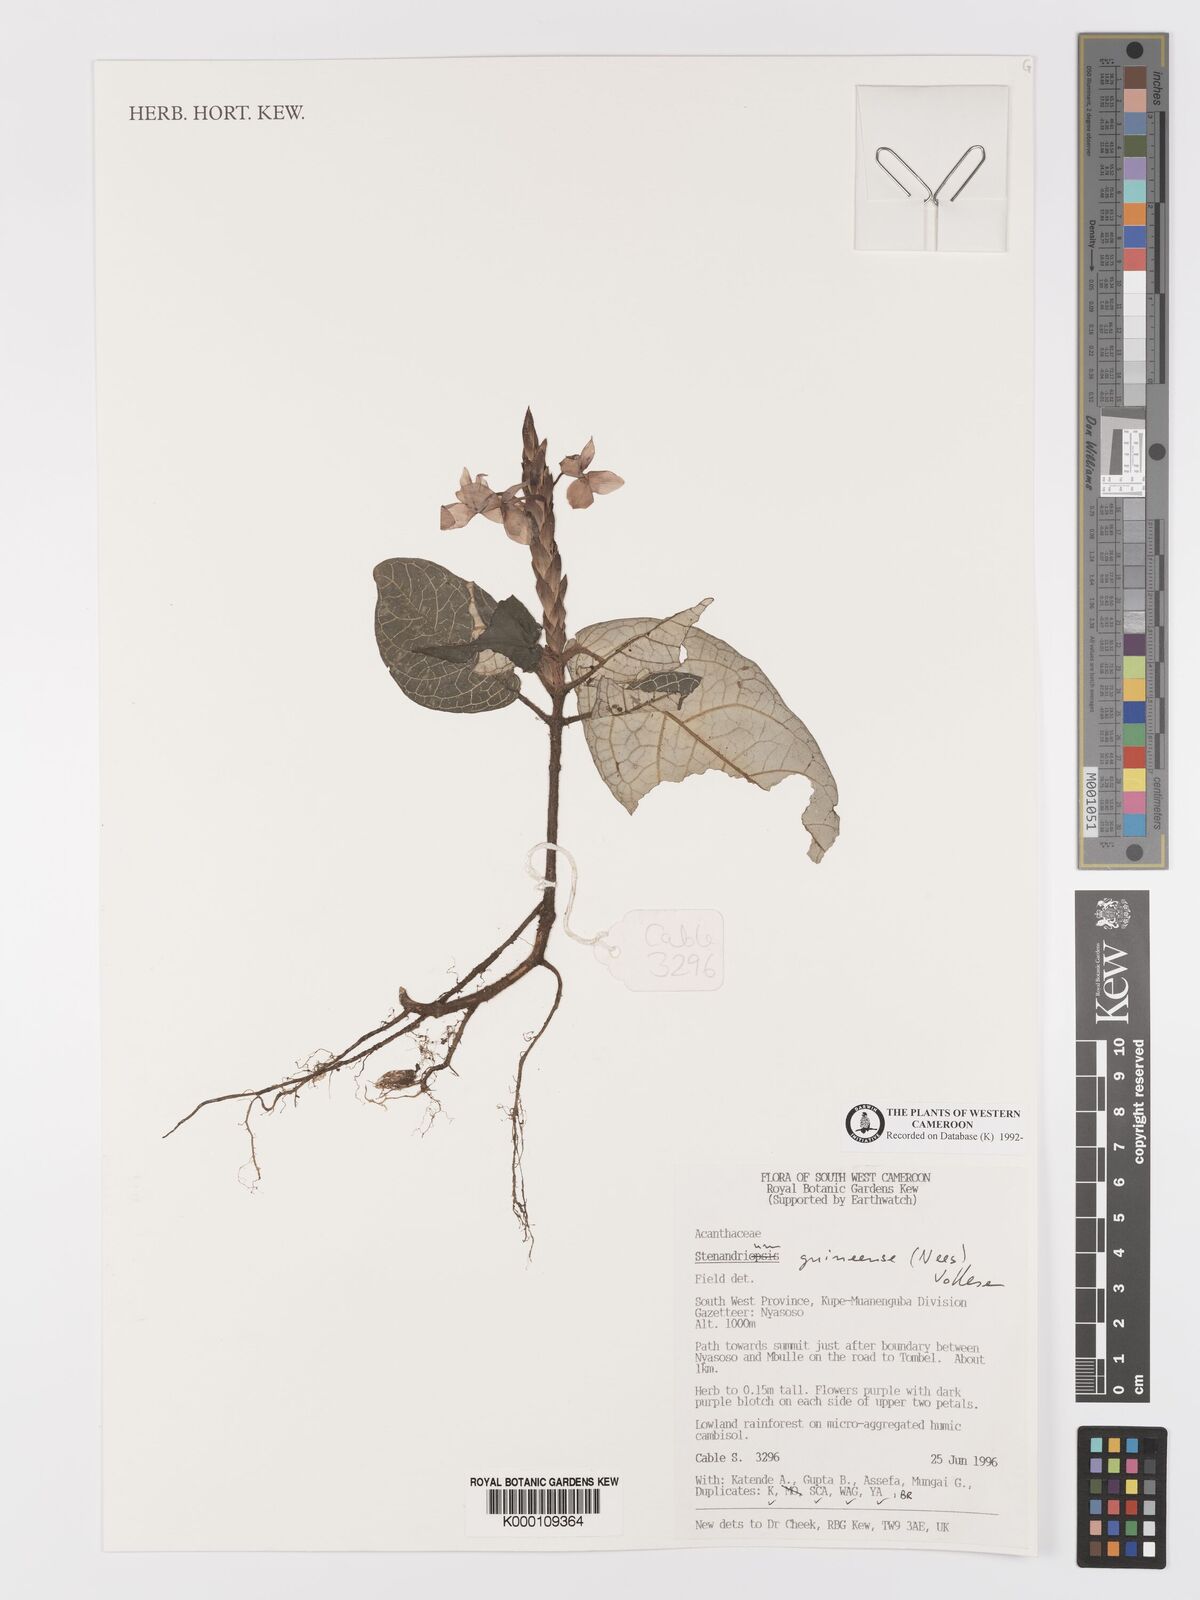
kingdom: Plantae
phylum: Tracheophyta
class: Magnoliopsida
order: Lamiales
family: Acanthaceae
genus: Stenandriopsis
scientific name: Stenandriopsis guineensis
